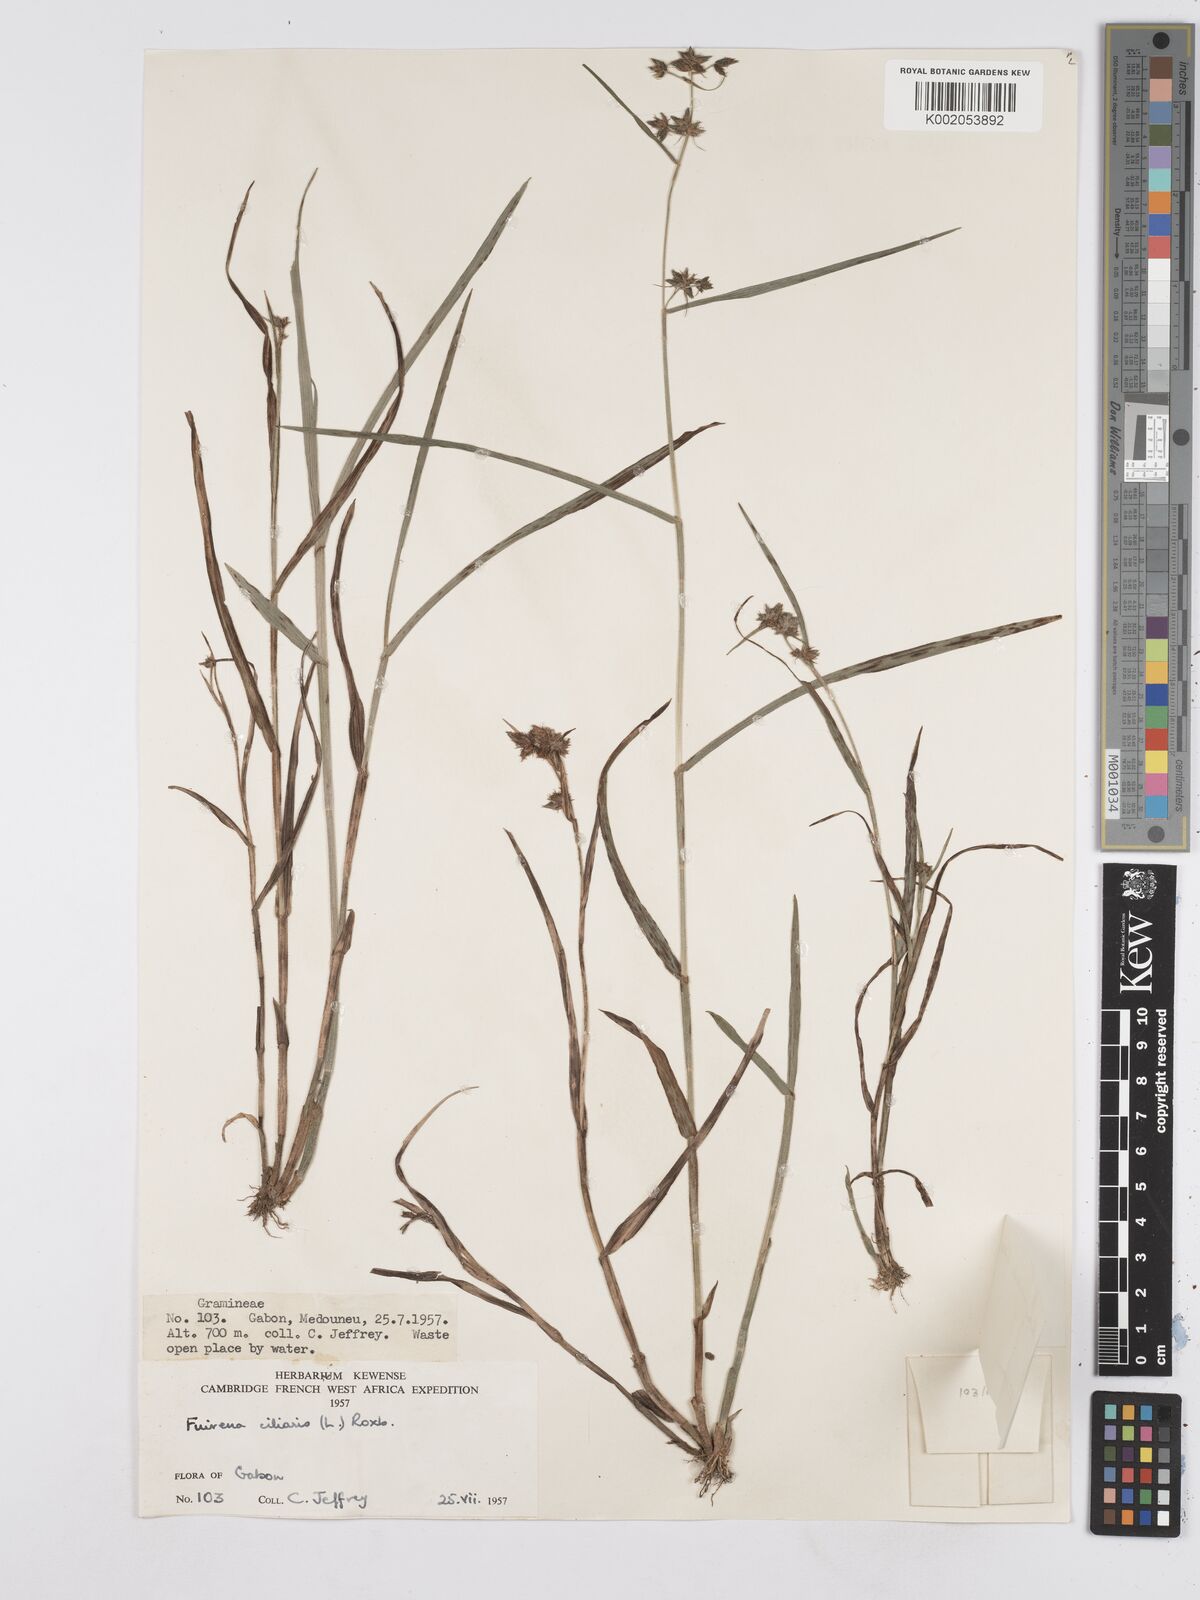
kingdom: Plantae
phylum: Tracheophyta
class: Liliopsida
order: Poales
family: Cyperaceae
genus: Fuirena
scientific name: Fuirena umbellata
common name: Yefen
